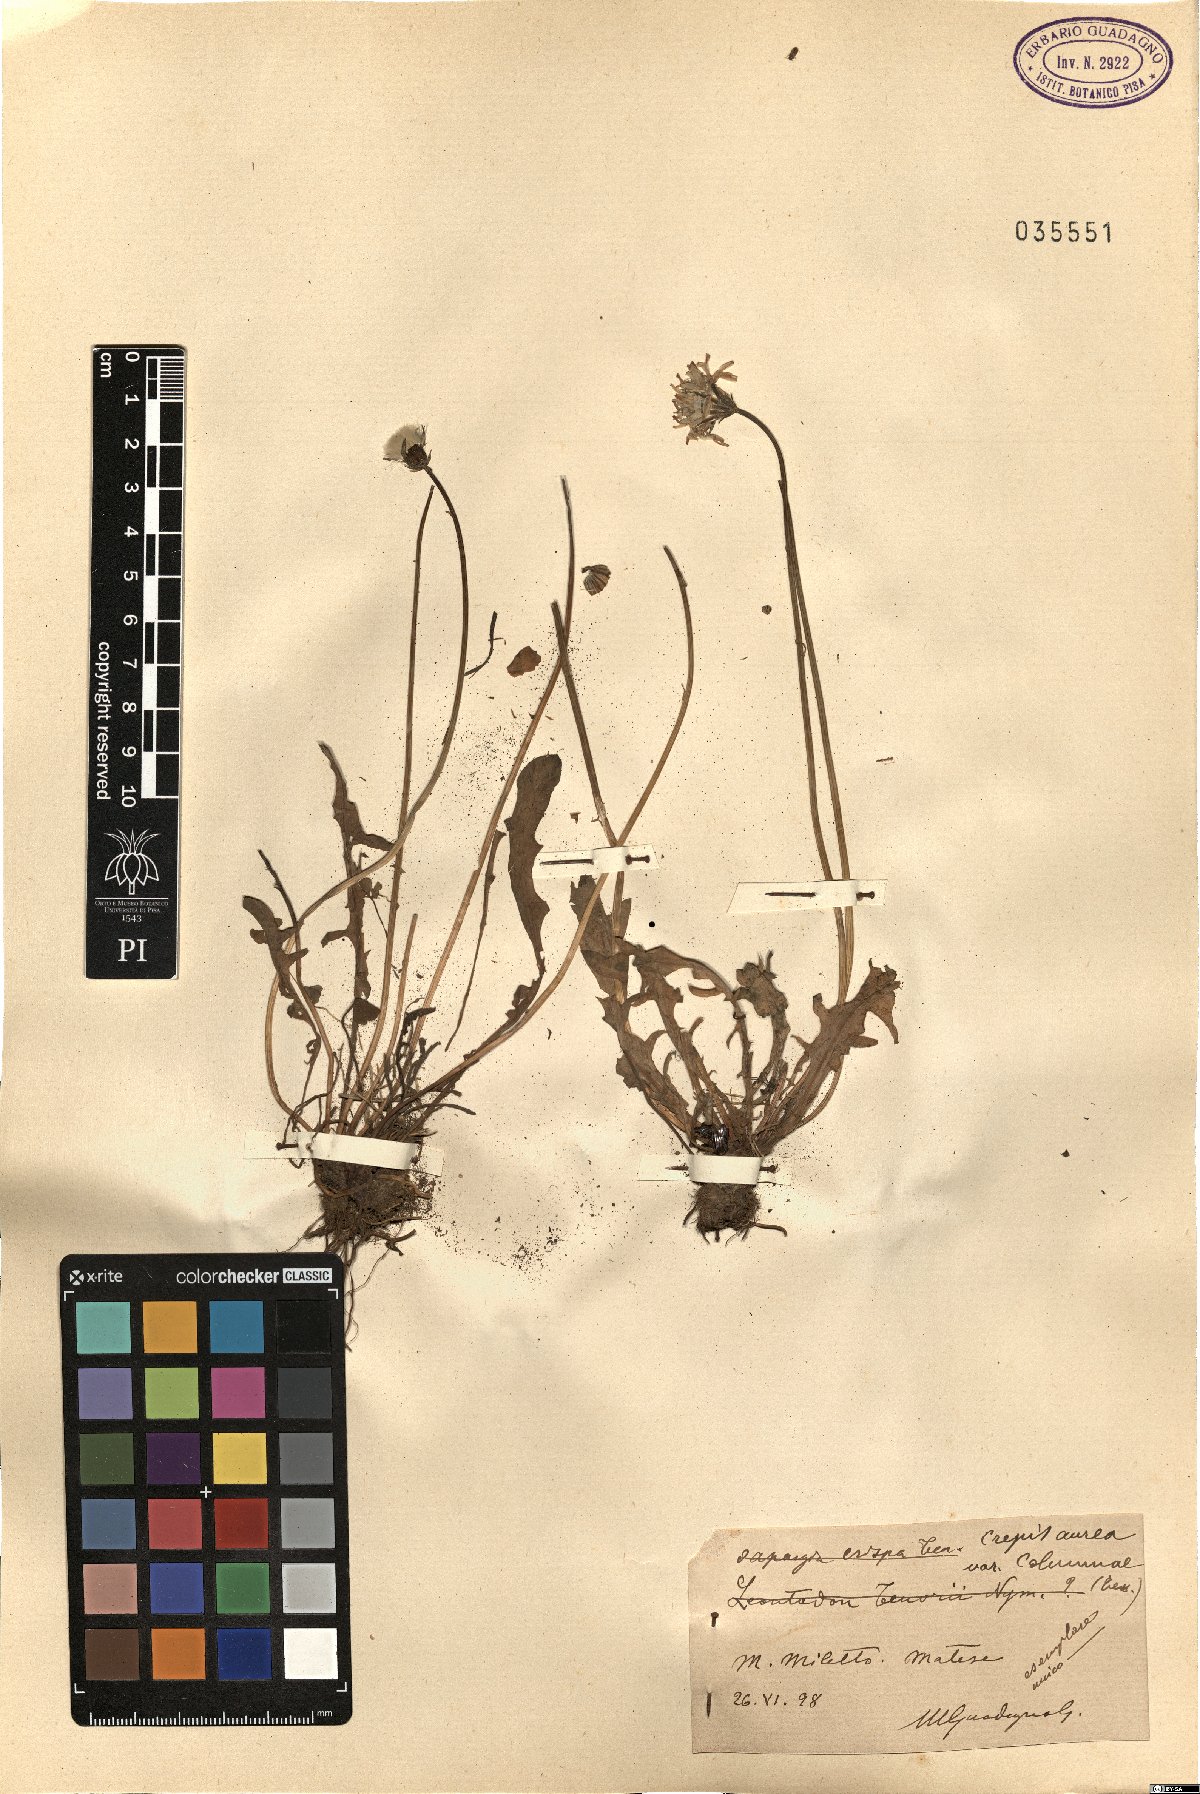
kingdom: Plantae
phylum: Tracheophyta
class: Magnoliopsida
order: Asterales
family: Asteraceae
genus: Crepis
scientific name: Crepis aurea
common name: Golden hawk's-beard
